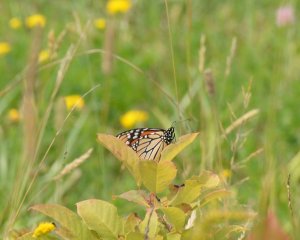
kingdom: Animalia
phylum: Arthropoda
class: Insecta
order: Lepidoptera
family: Nymphalidae
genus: Danaus
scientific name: Danaus plexippus
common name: Monarch
